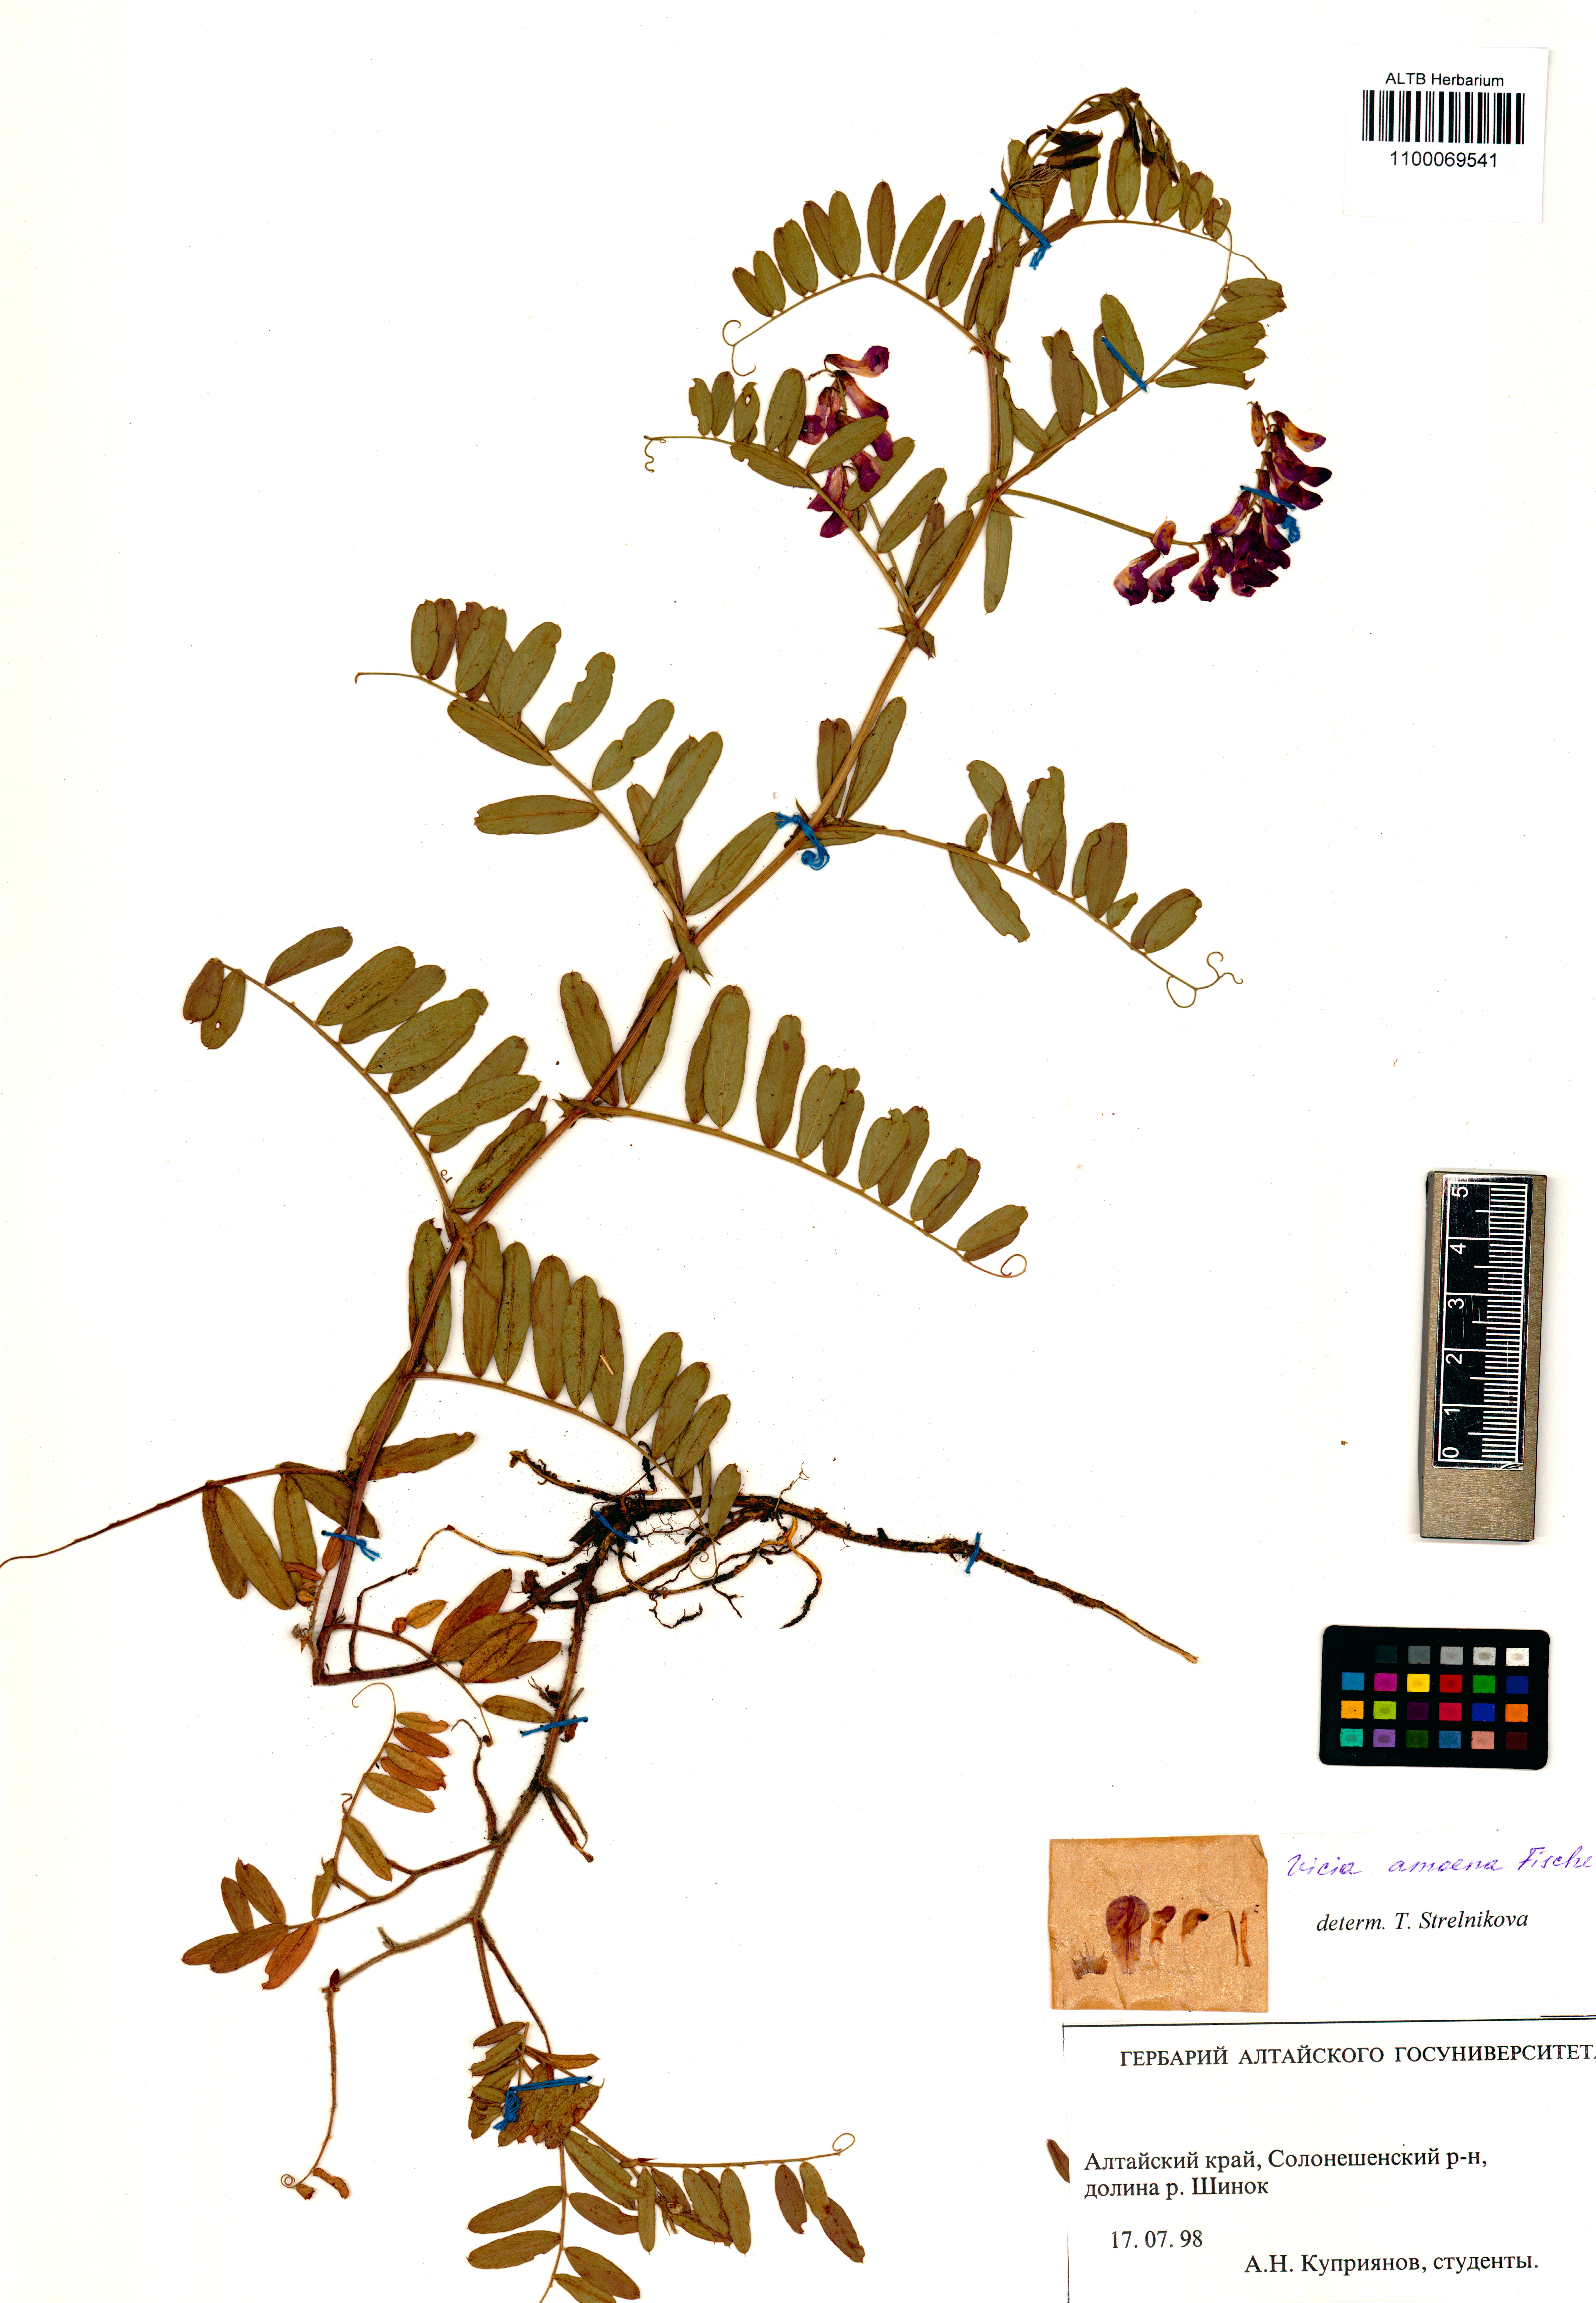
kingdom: Plantae
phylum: Tracheophyta
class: Magnoliopsida
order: Fabales
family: Fabaceae
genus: Vicia
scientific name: Vicia amoena
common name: Cheder ebs
